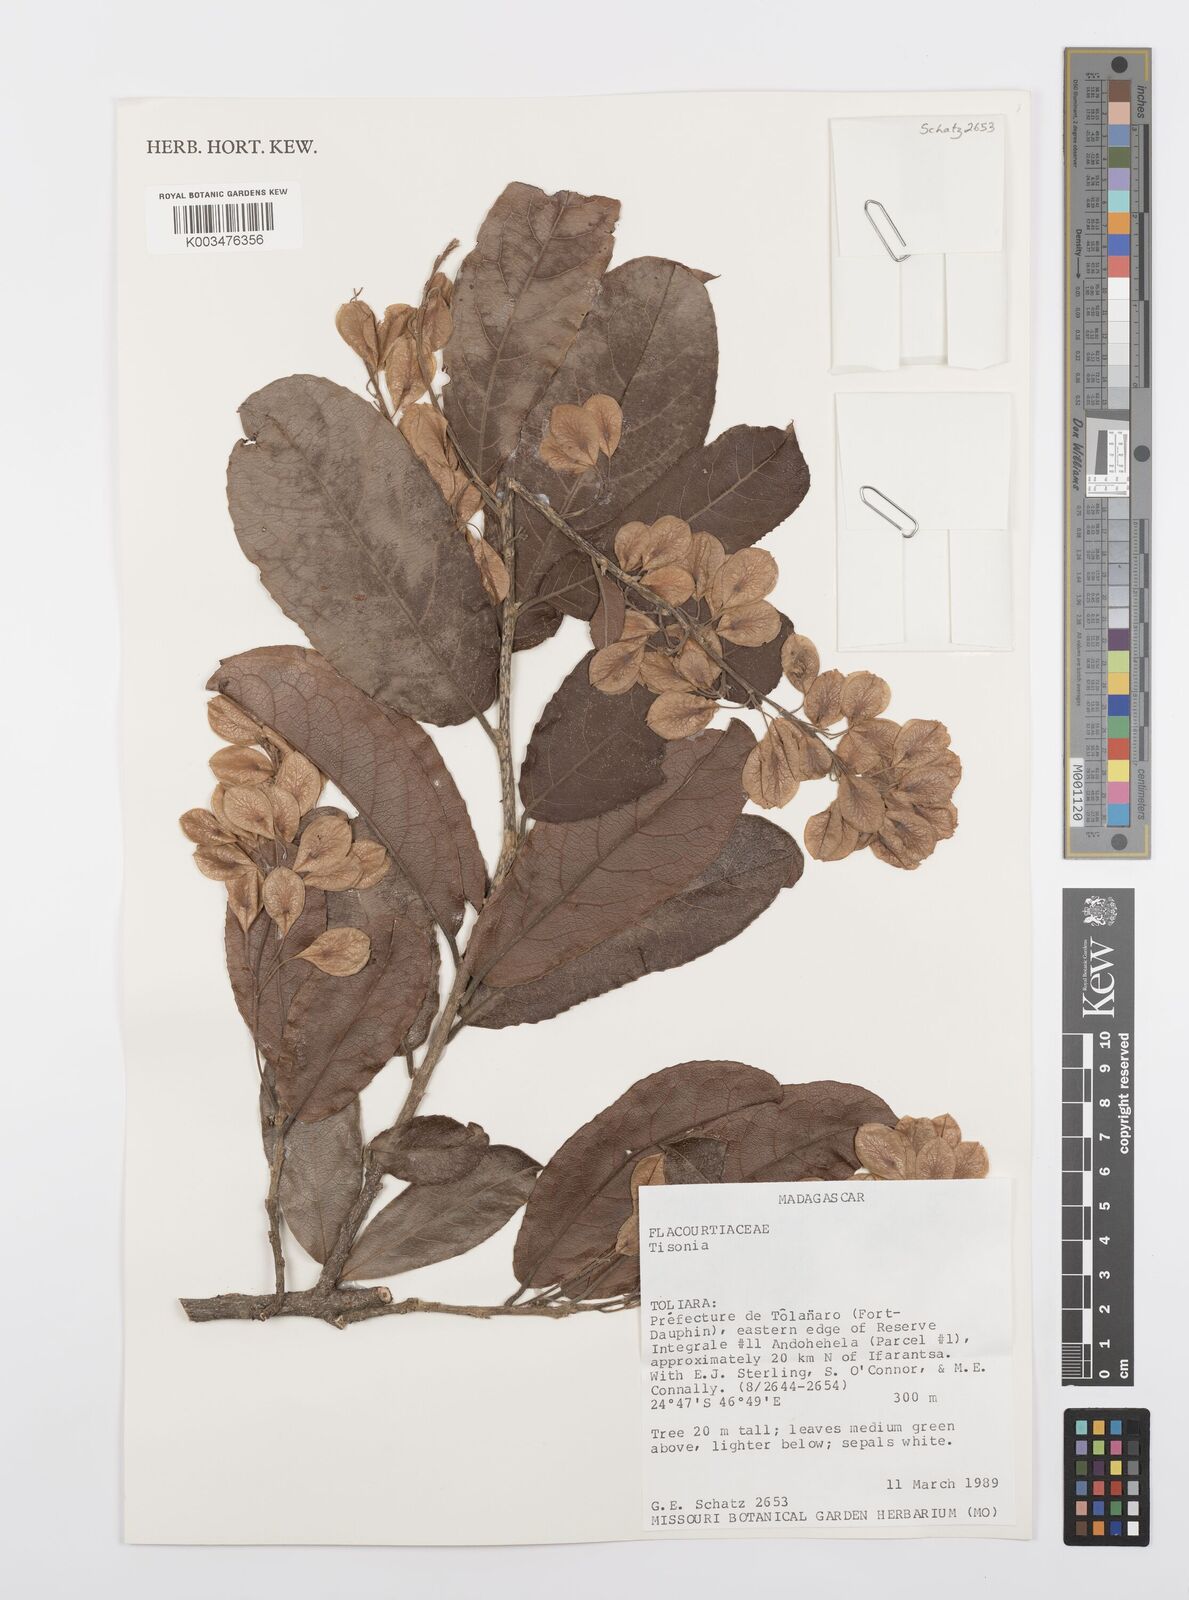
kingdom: Plantae
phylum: Tracheophyta
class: Magnoliopsida
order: Malpighiales
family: Salicaceae
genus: Tisonia
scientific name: Tisonia
